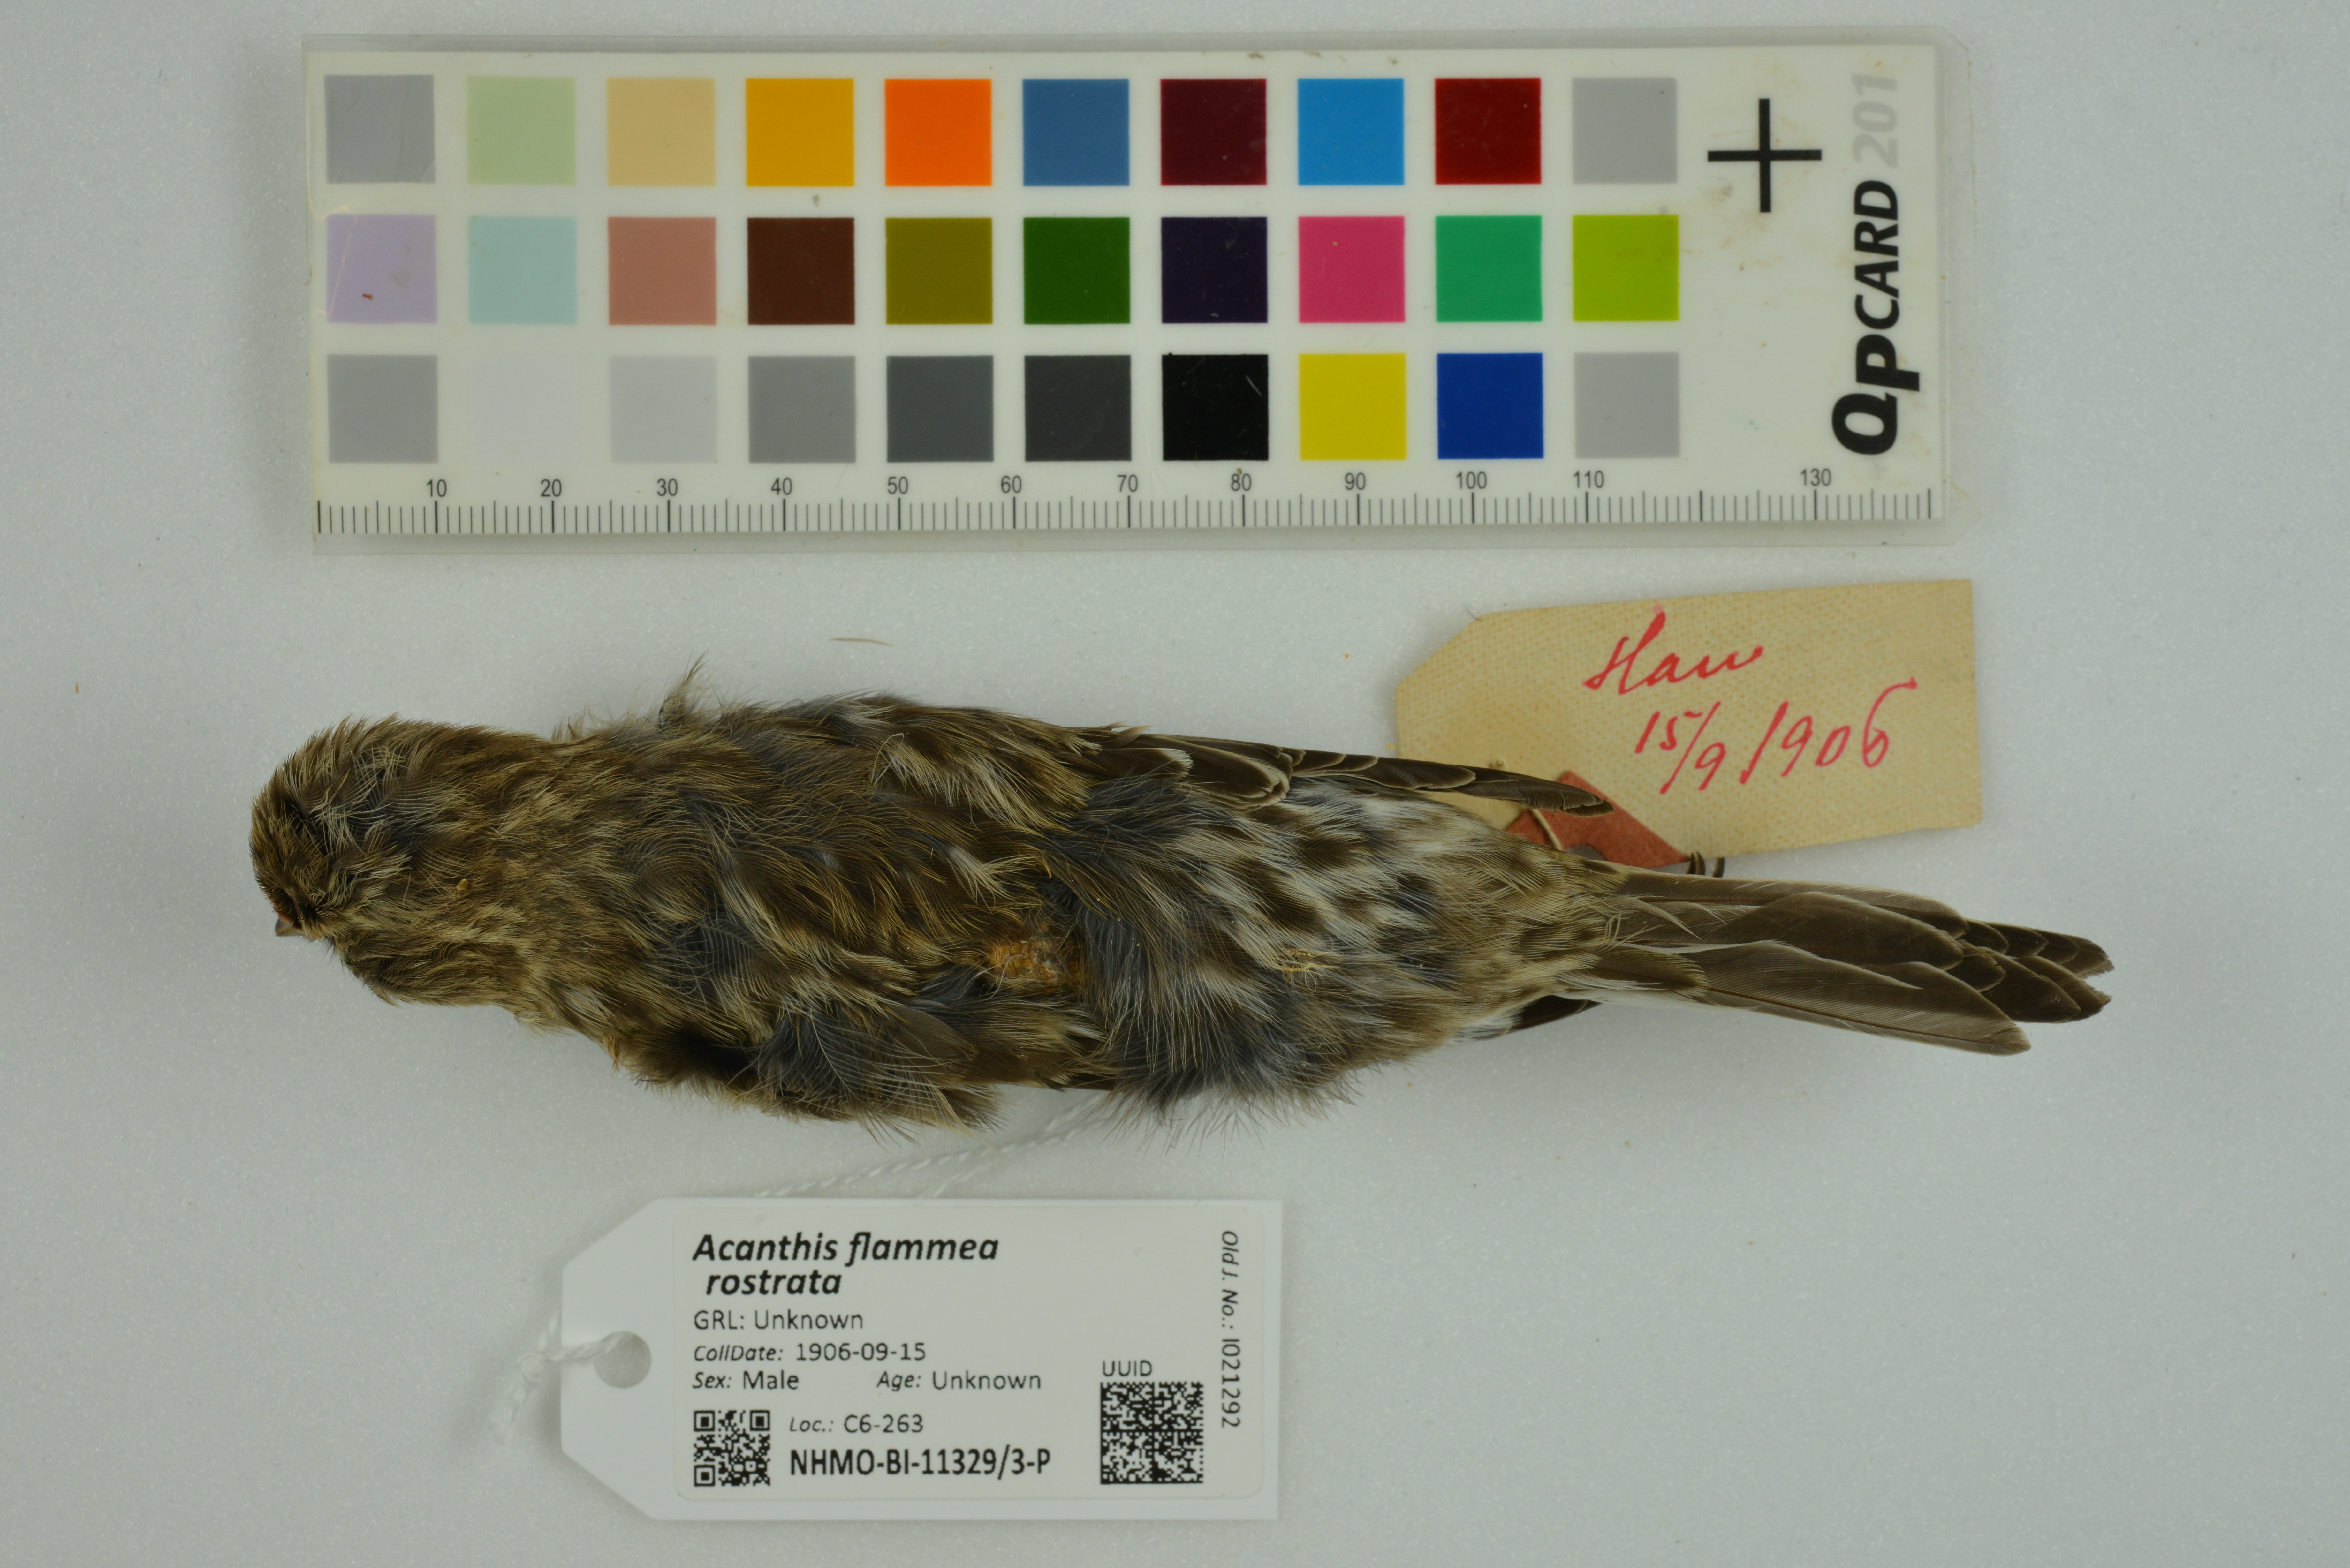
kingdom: Animalia
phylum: Chordata
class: Aves
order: Passeriformes
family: Fringillidae
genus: Acanthis
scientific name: Acanthis flammea
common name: Common redpoll
